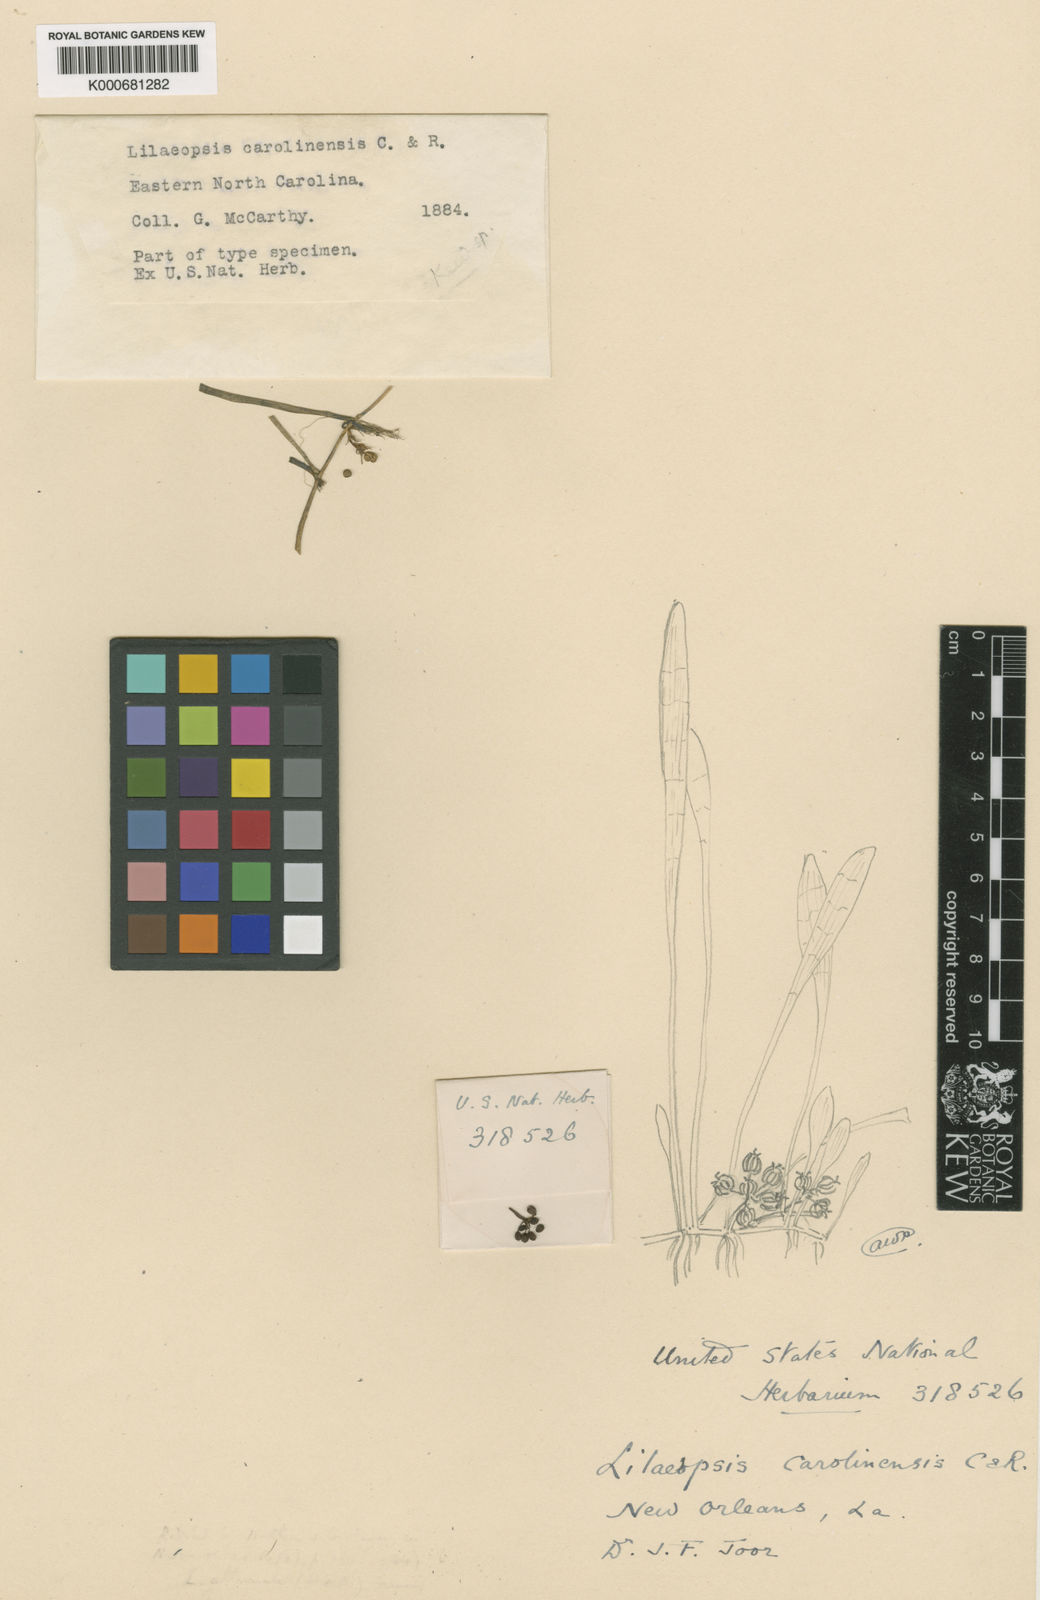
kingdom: Plantae
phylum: Tracheophyta
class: Magnoliopsida
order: Apiales
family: Apiaceae
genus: Lilaeopsis
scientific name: Lilaeopsis carolinensis
